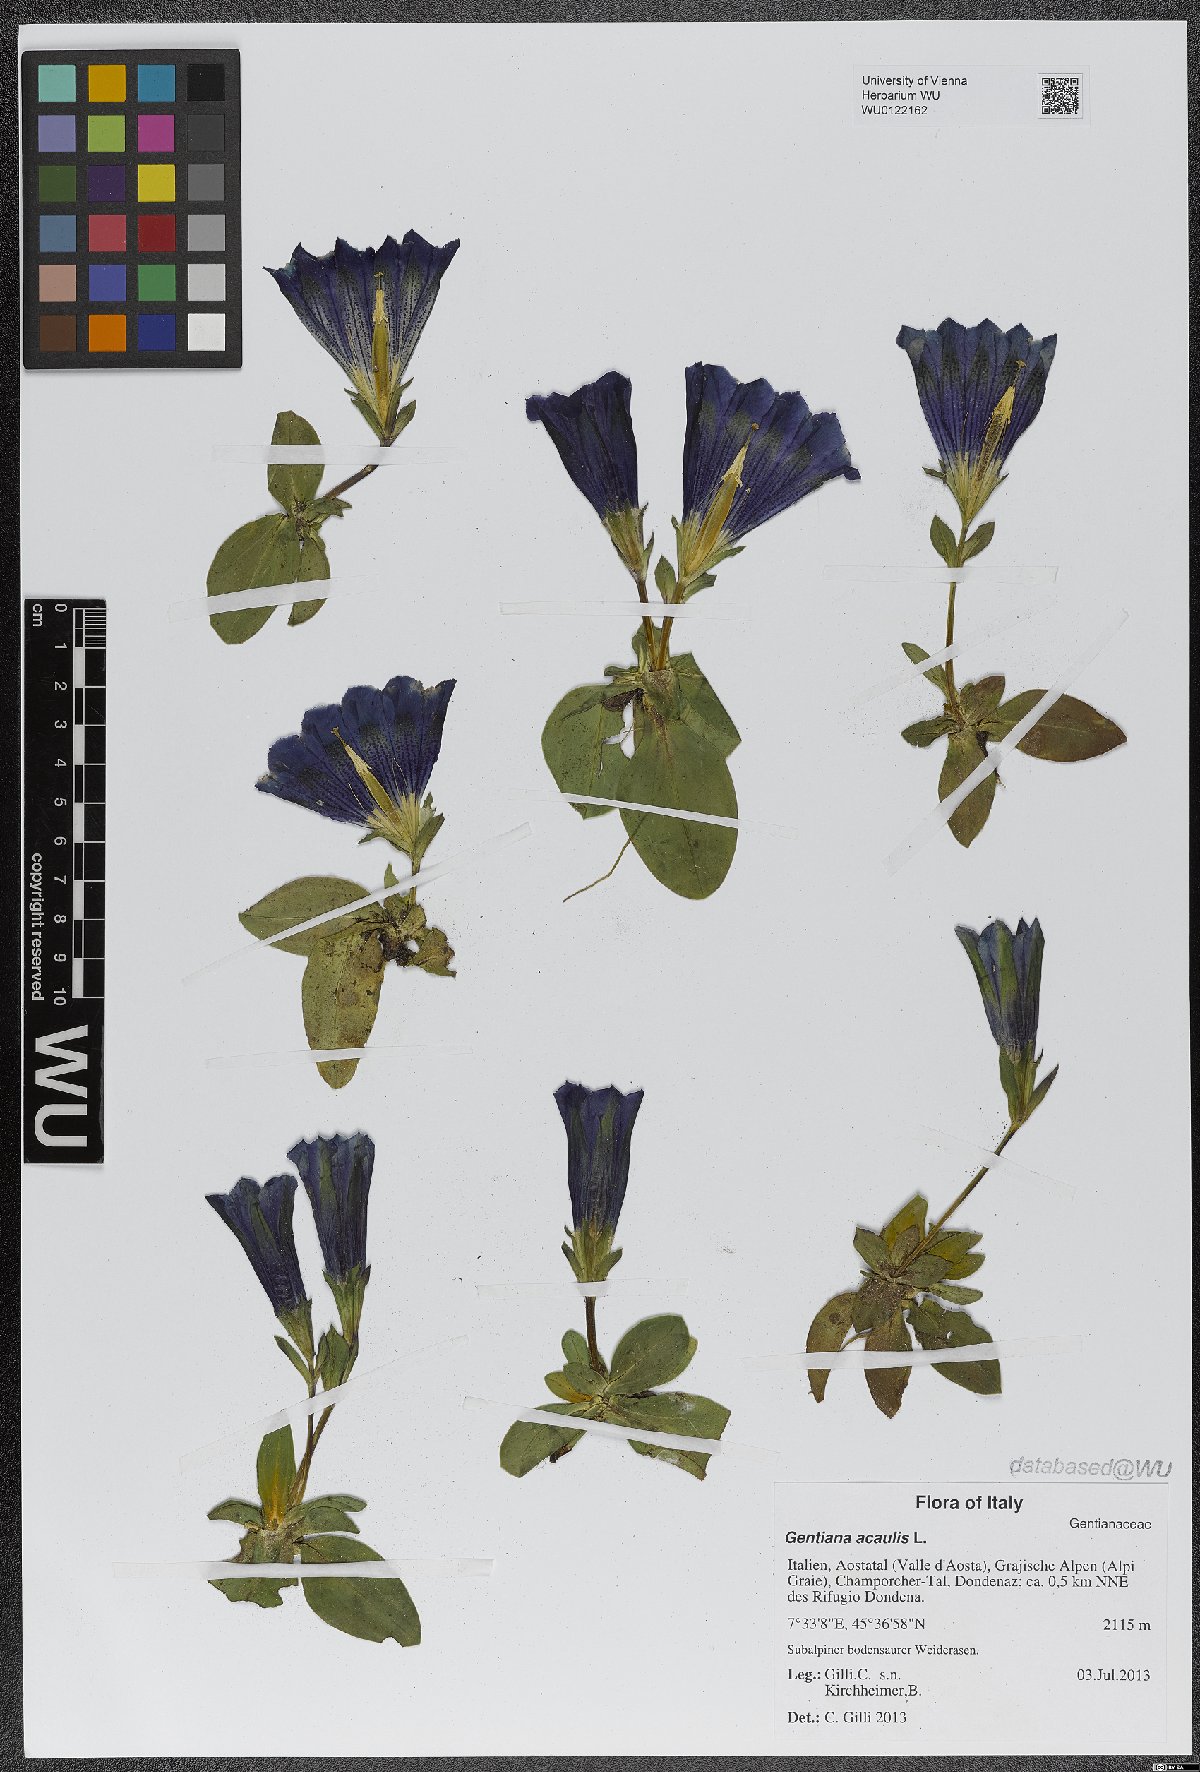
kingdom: Plantae
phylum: Tracheophyta
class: Magnoliopsida
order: Gentianales
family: Gentianaceae
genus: Gentiana
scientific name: Gentiana acaulis
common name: Trumpet gentian
